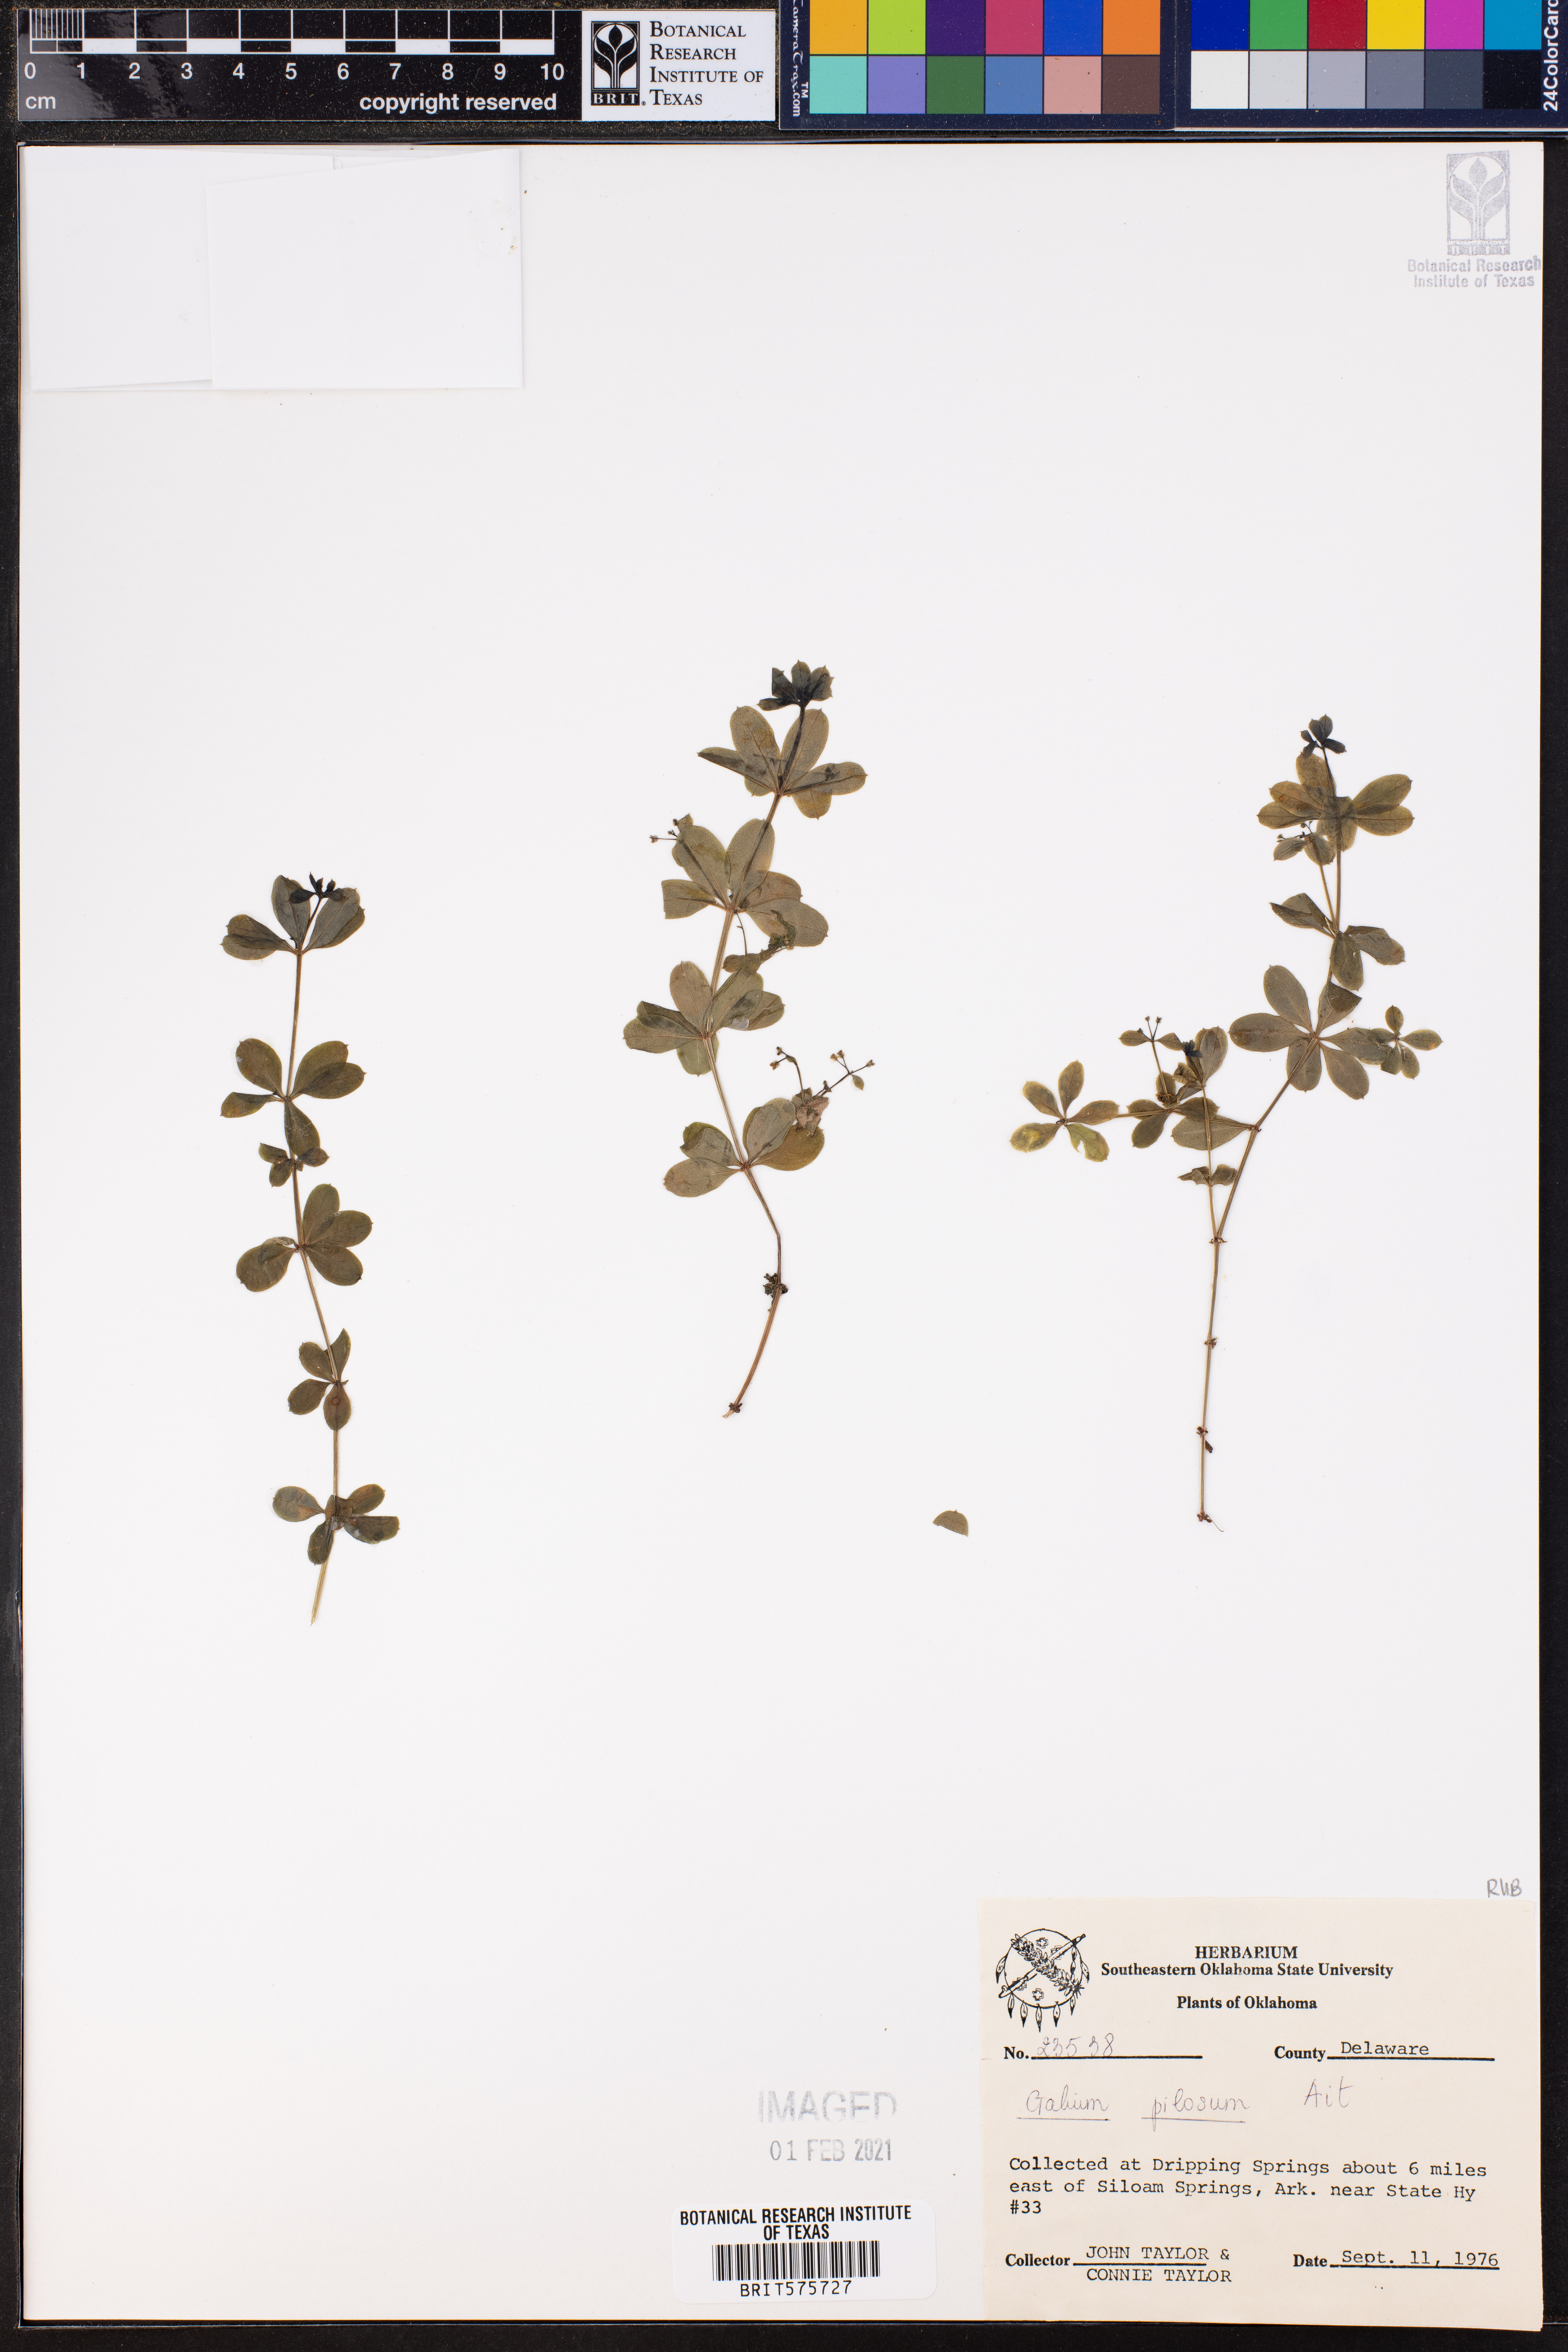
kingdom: Plantae
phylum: Tracheophyta
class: Magnoliopsida
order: Gentianales
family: Rubiaceae
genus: Galium
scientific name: Galium pilosum
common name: Hairy bedstraw
